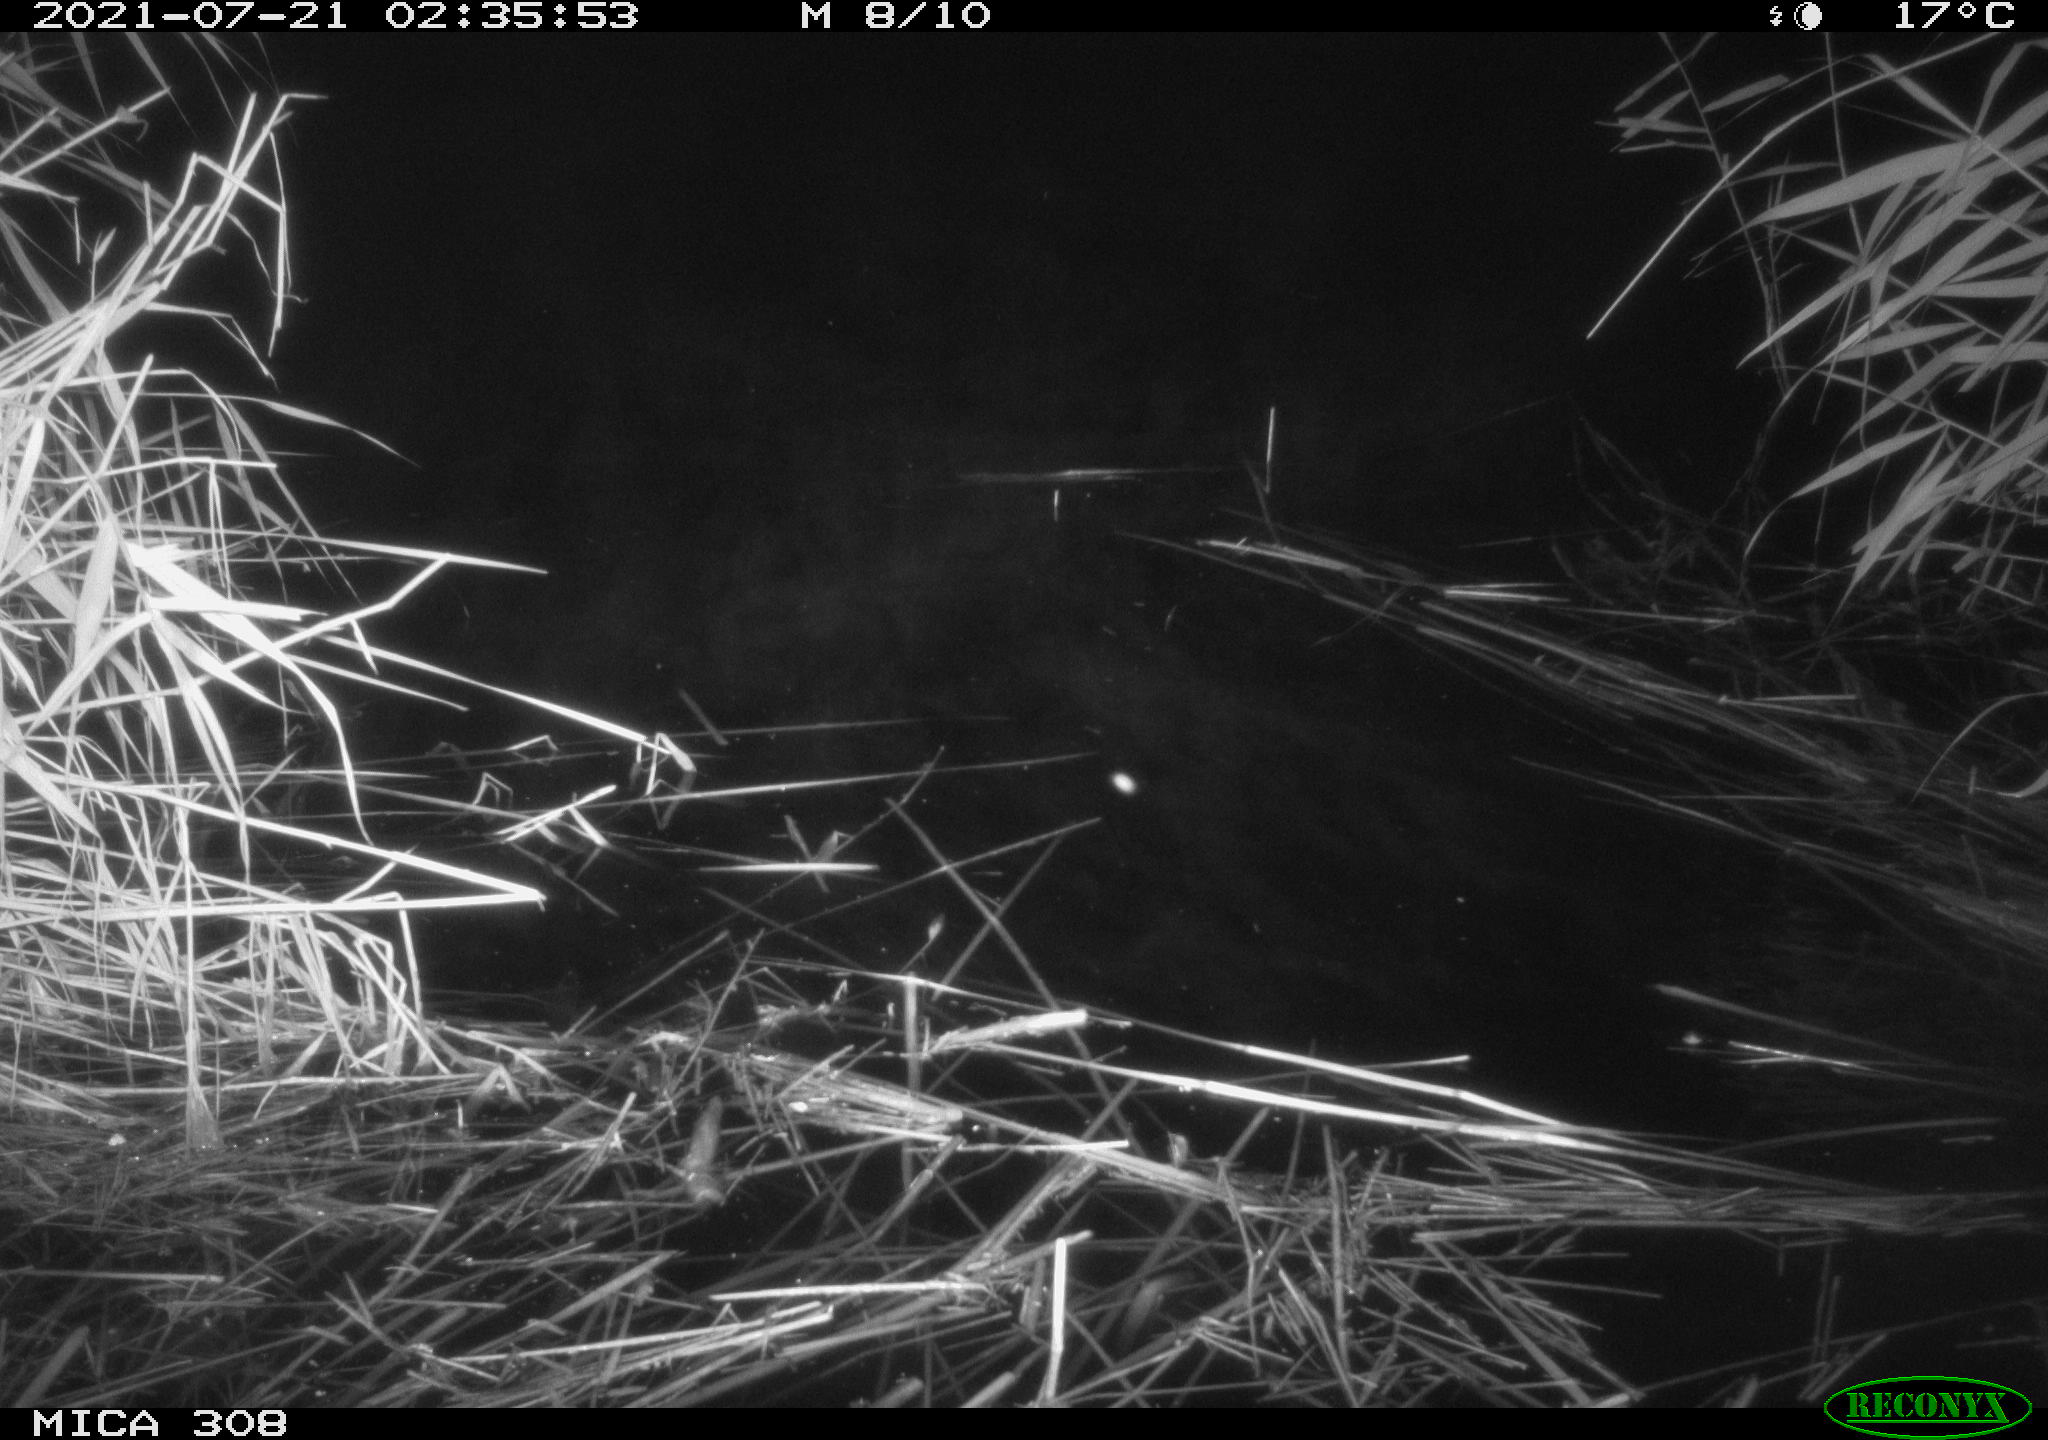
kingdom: Animalia
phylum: Chordata
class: Aves
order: Anseriformes
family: Anatidae
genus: Anas
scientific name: Anas platyrhynchos
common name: Mallard
